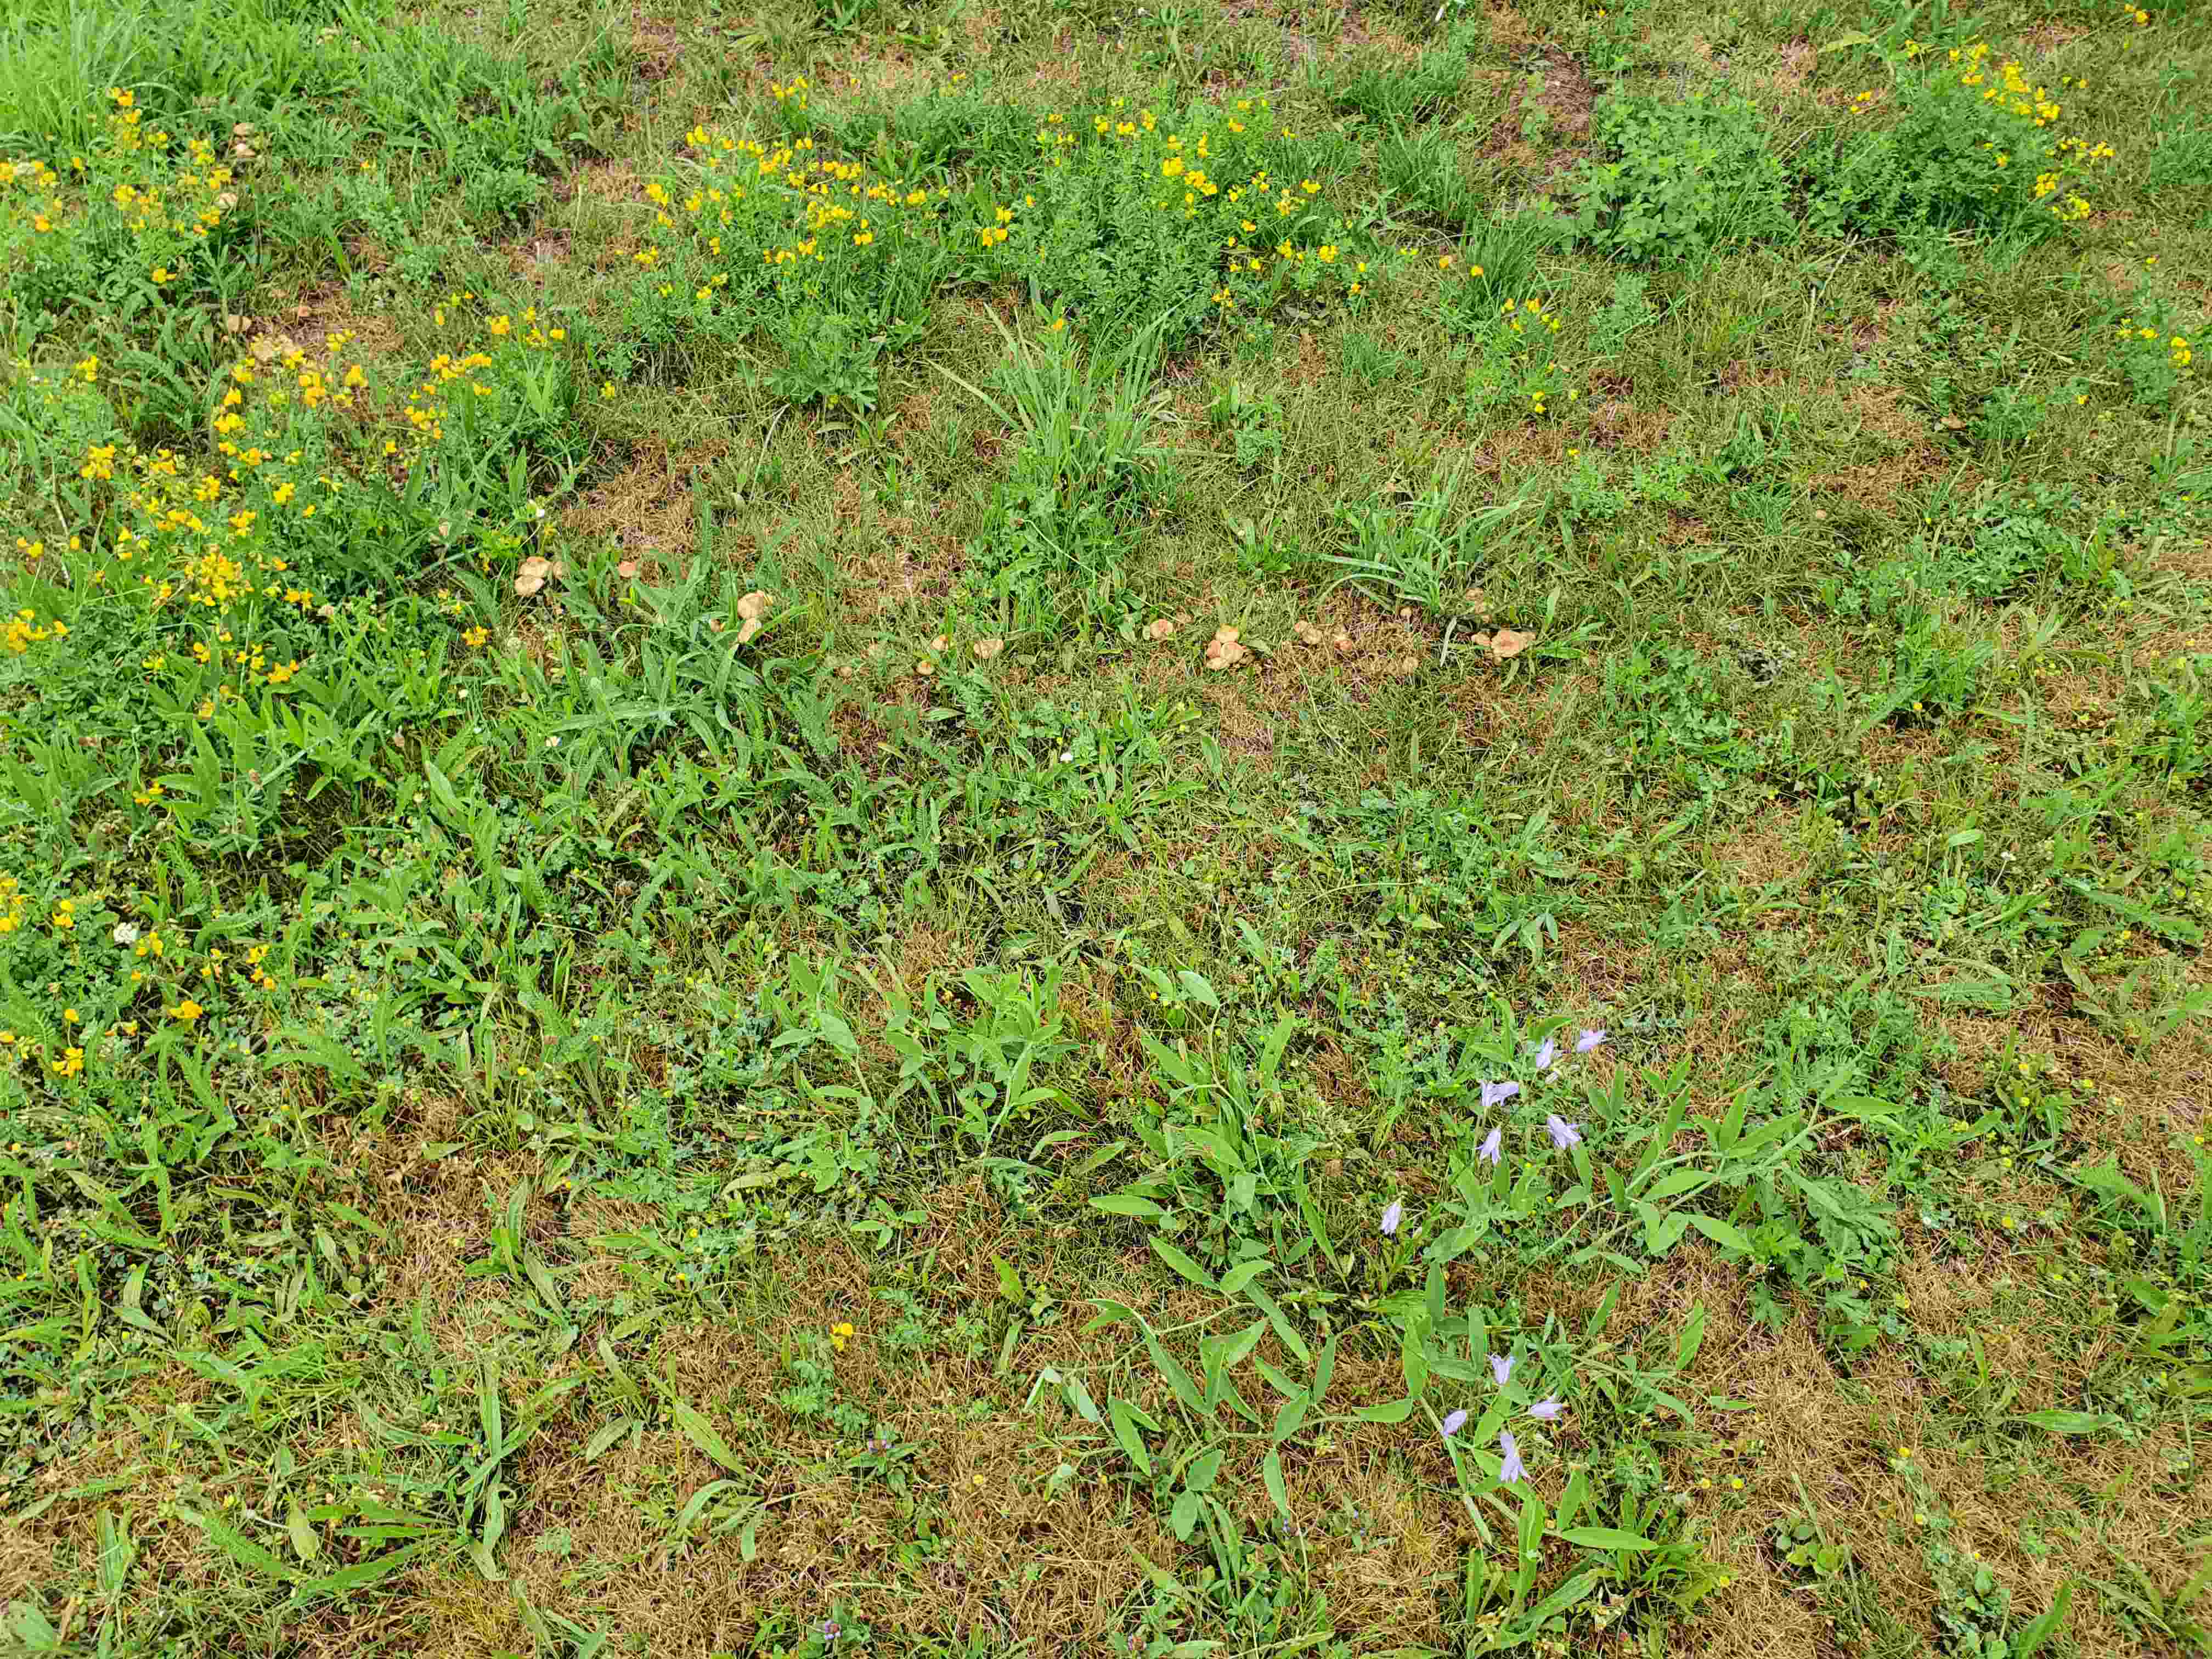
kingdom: Fungi
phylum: Basidiomycota
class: Agaricomycetes
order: Agaricales
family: Marasmiaceae
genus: Marasmius
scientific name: Marasmius oreades
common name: elledans-bruskhat
